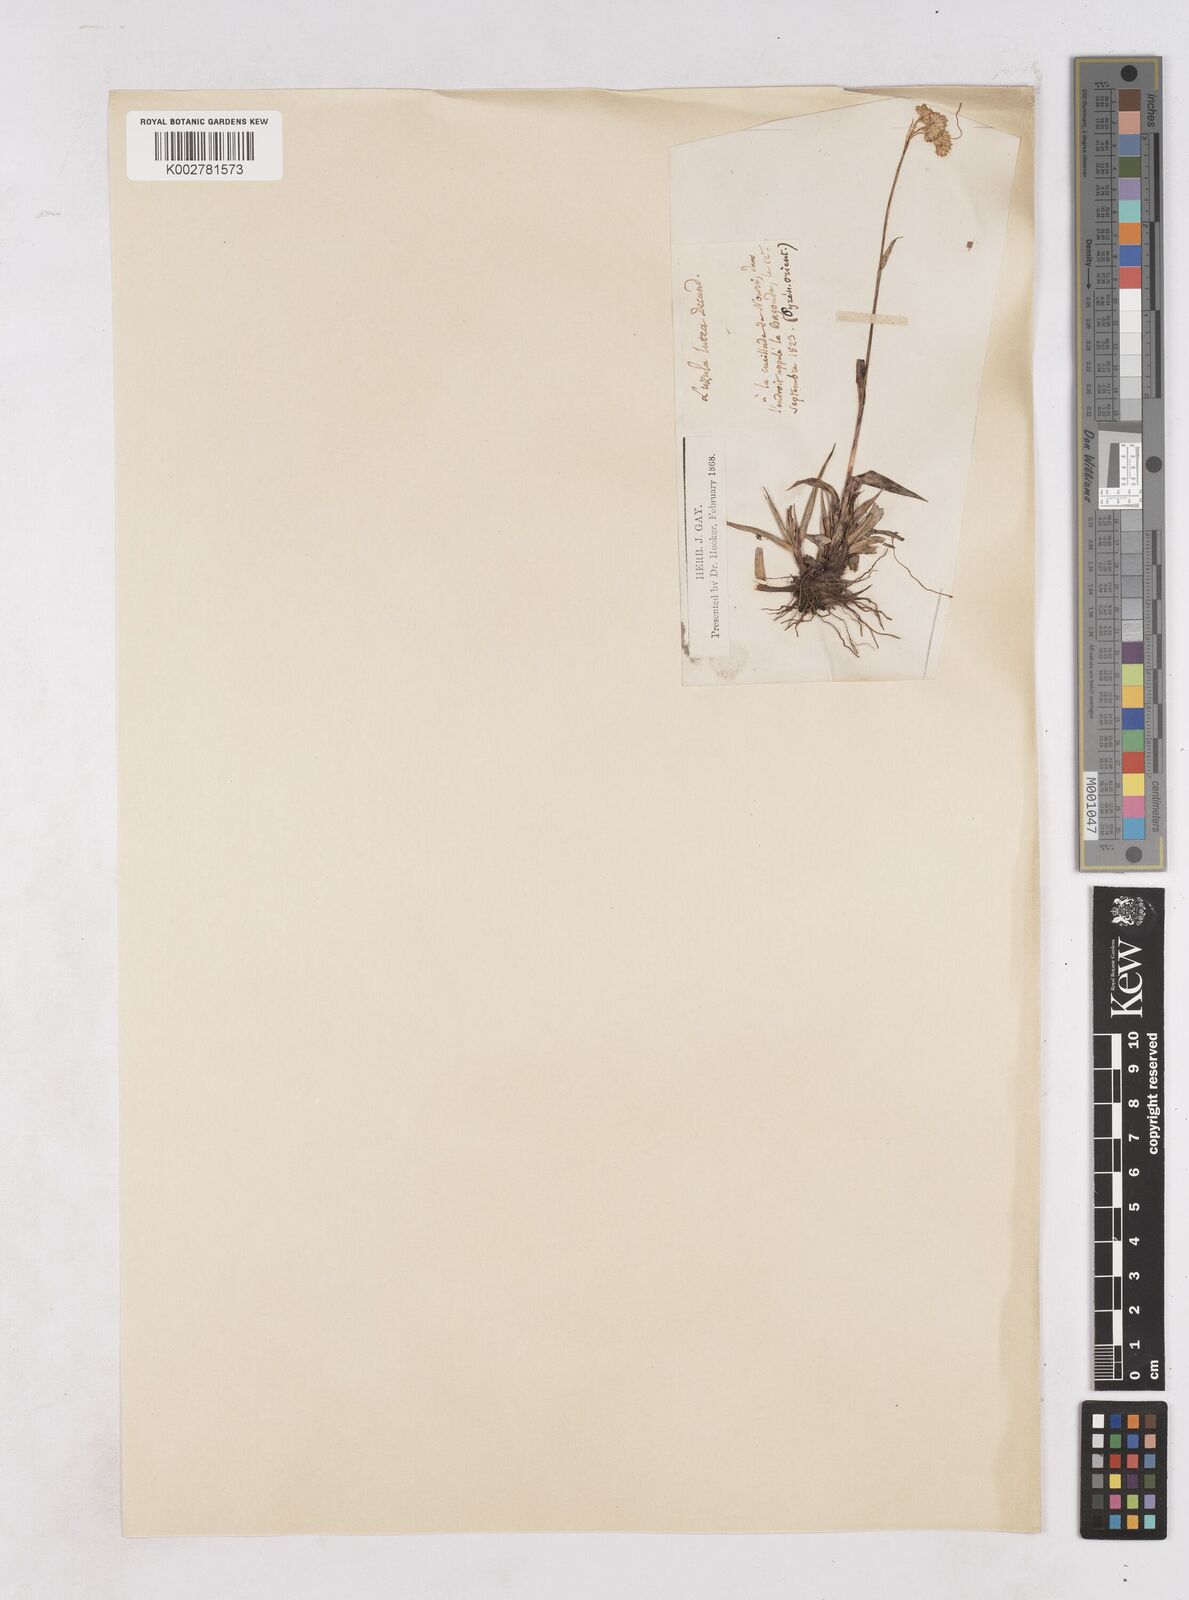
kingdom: Plantae
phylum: Tracheophyta
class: Liliopsida
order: Poales
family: Juncaceae
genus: Luzula
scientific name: Luzula lutea
